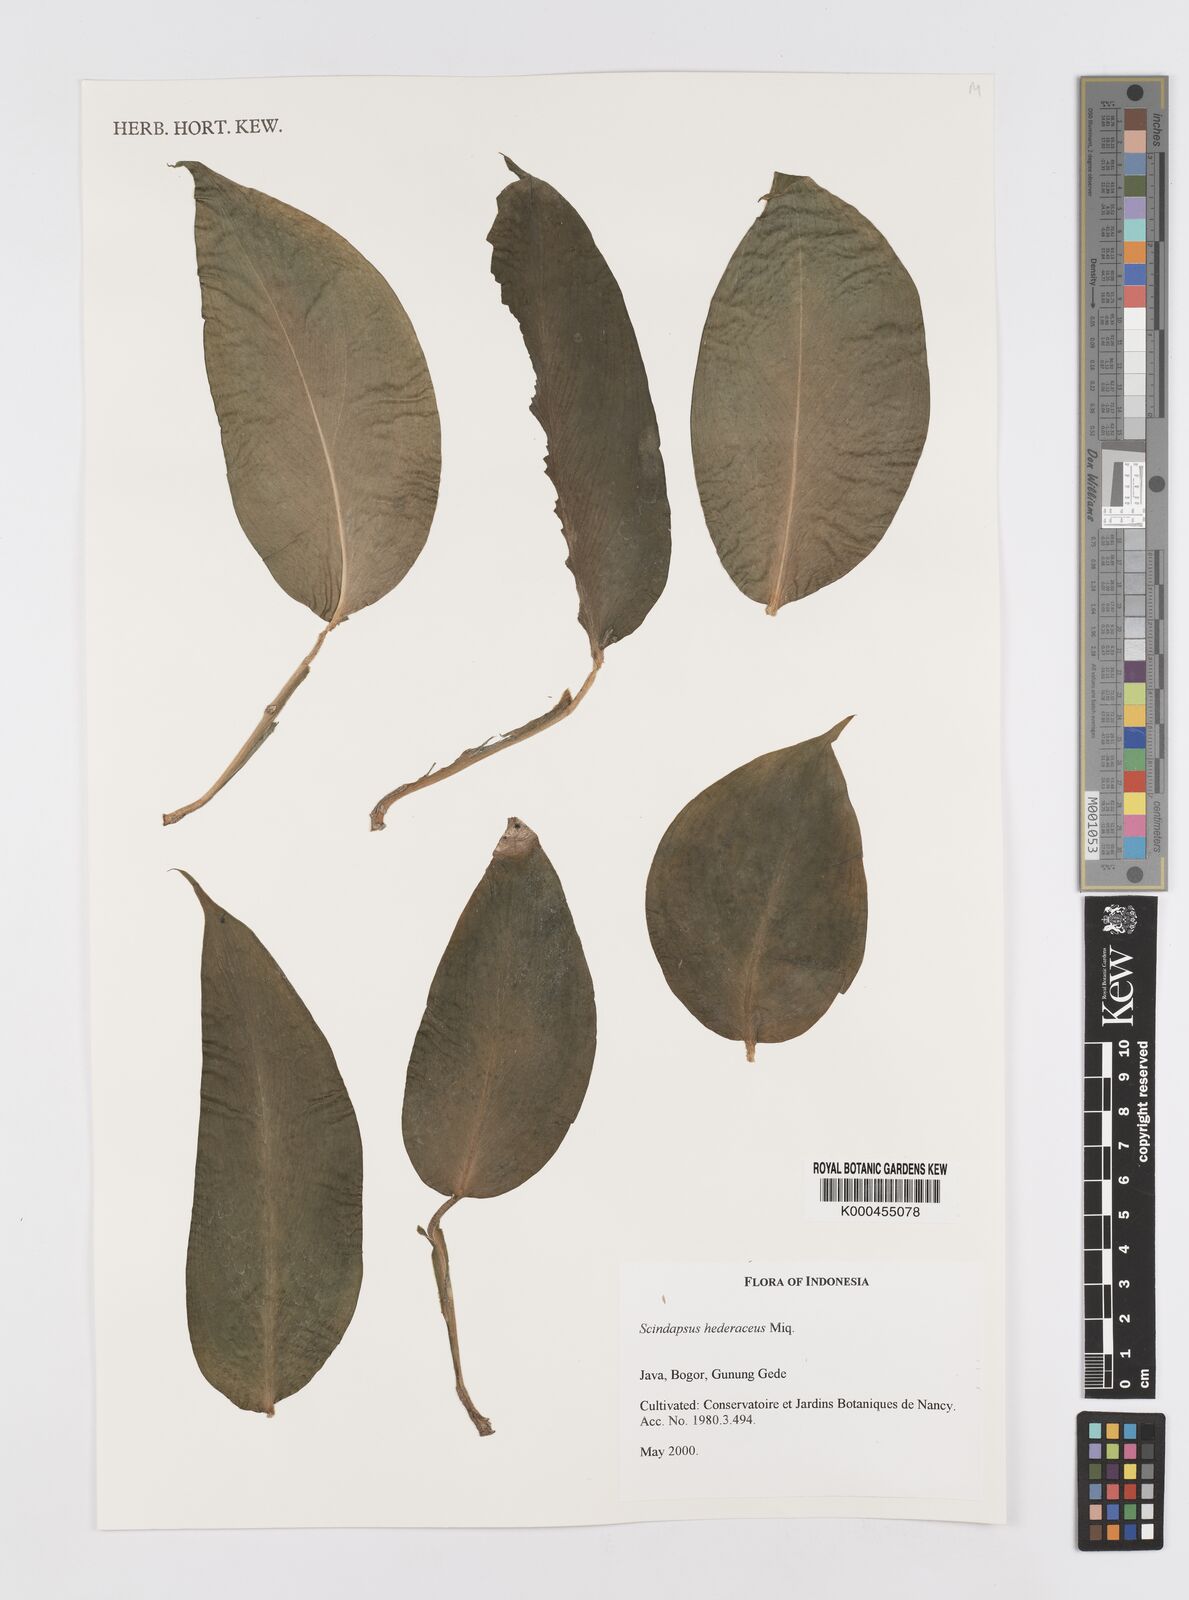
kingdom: Plantae
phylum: Tracheophyta
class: Liliopsida
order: Alismatales
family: Araceae
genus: Scindapsus
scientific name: Scindapsus hederaceus
